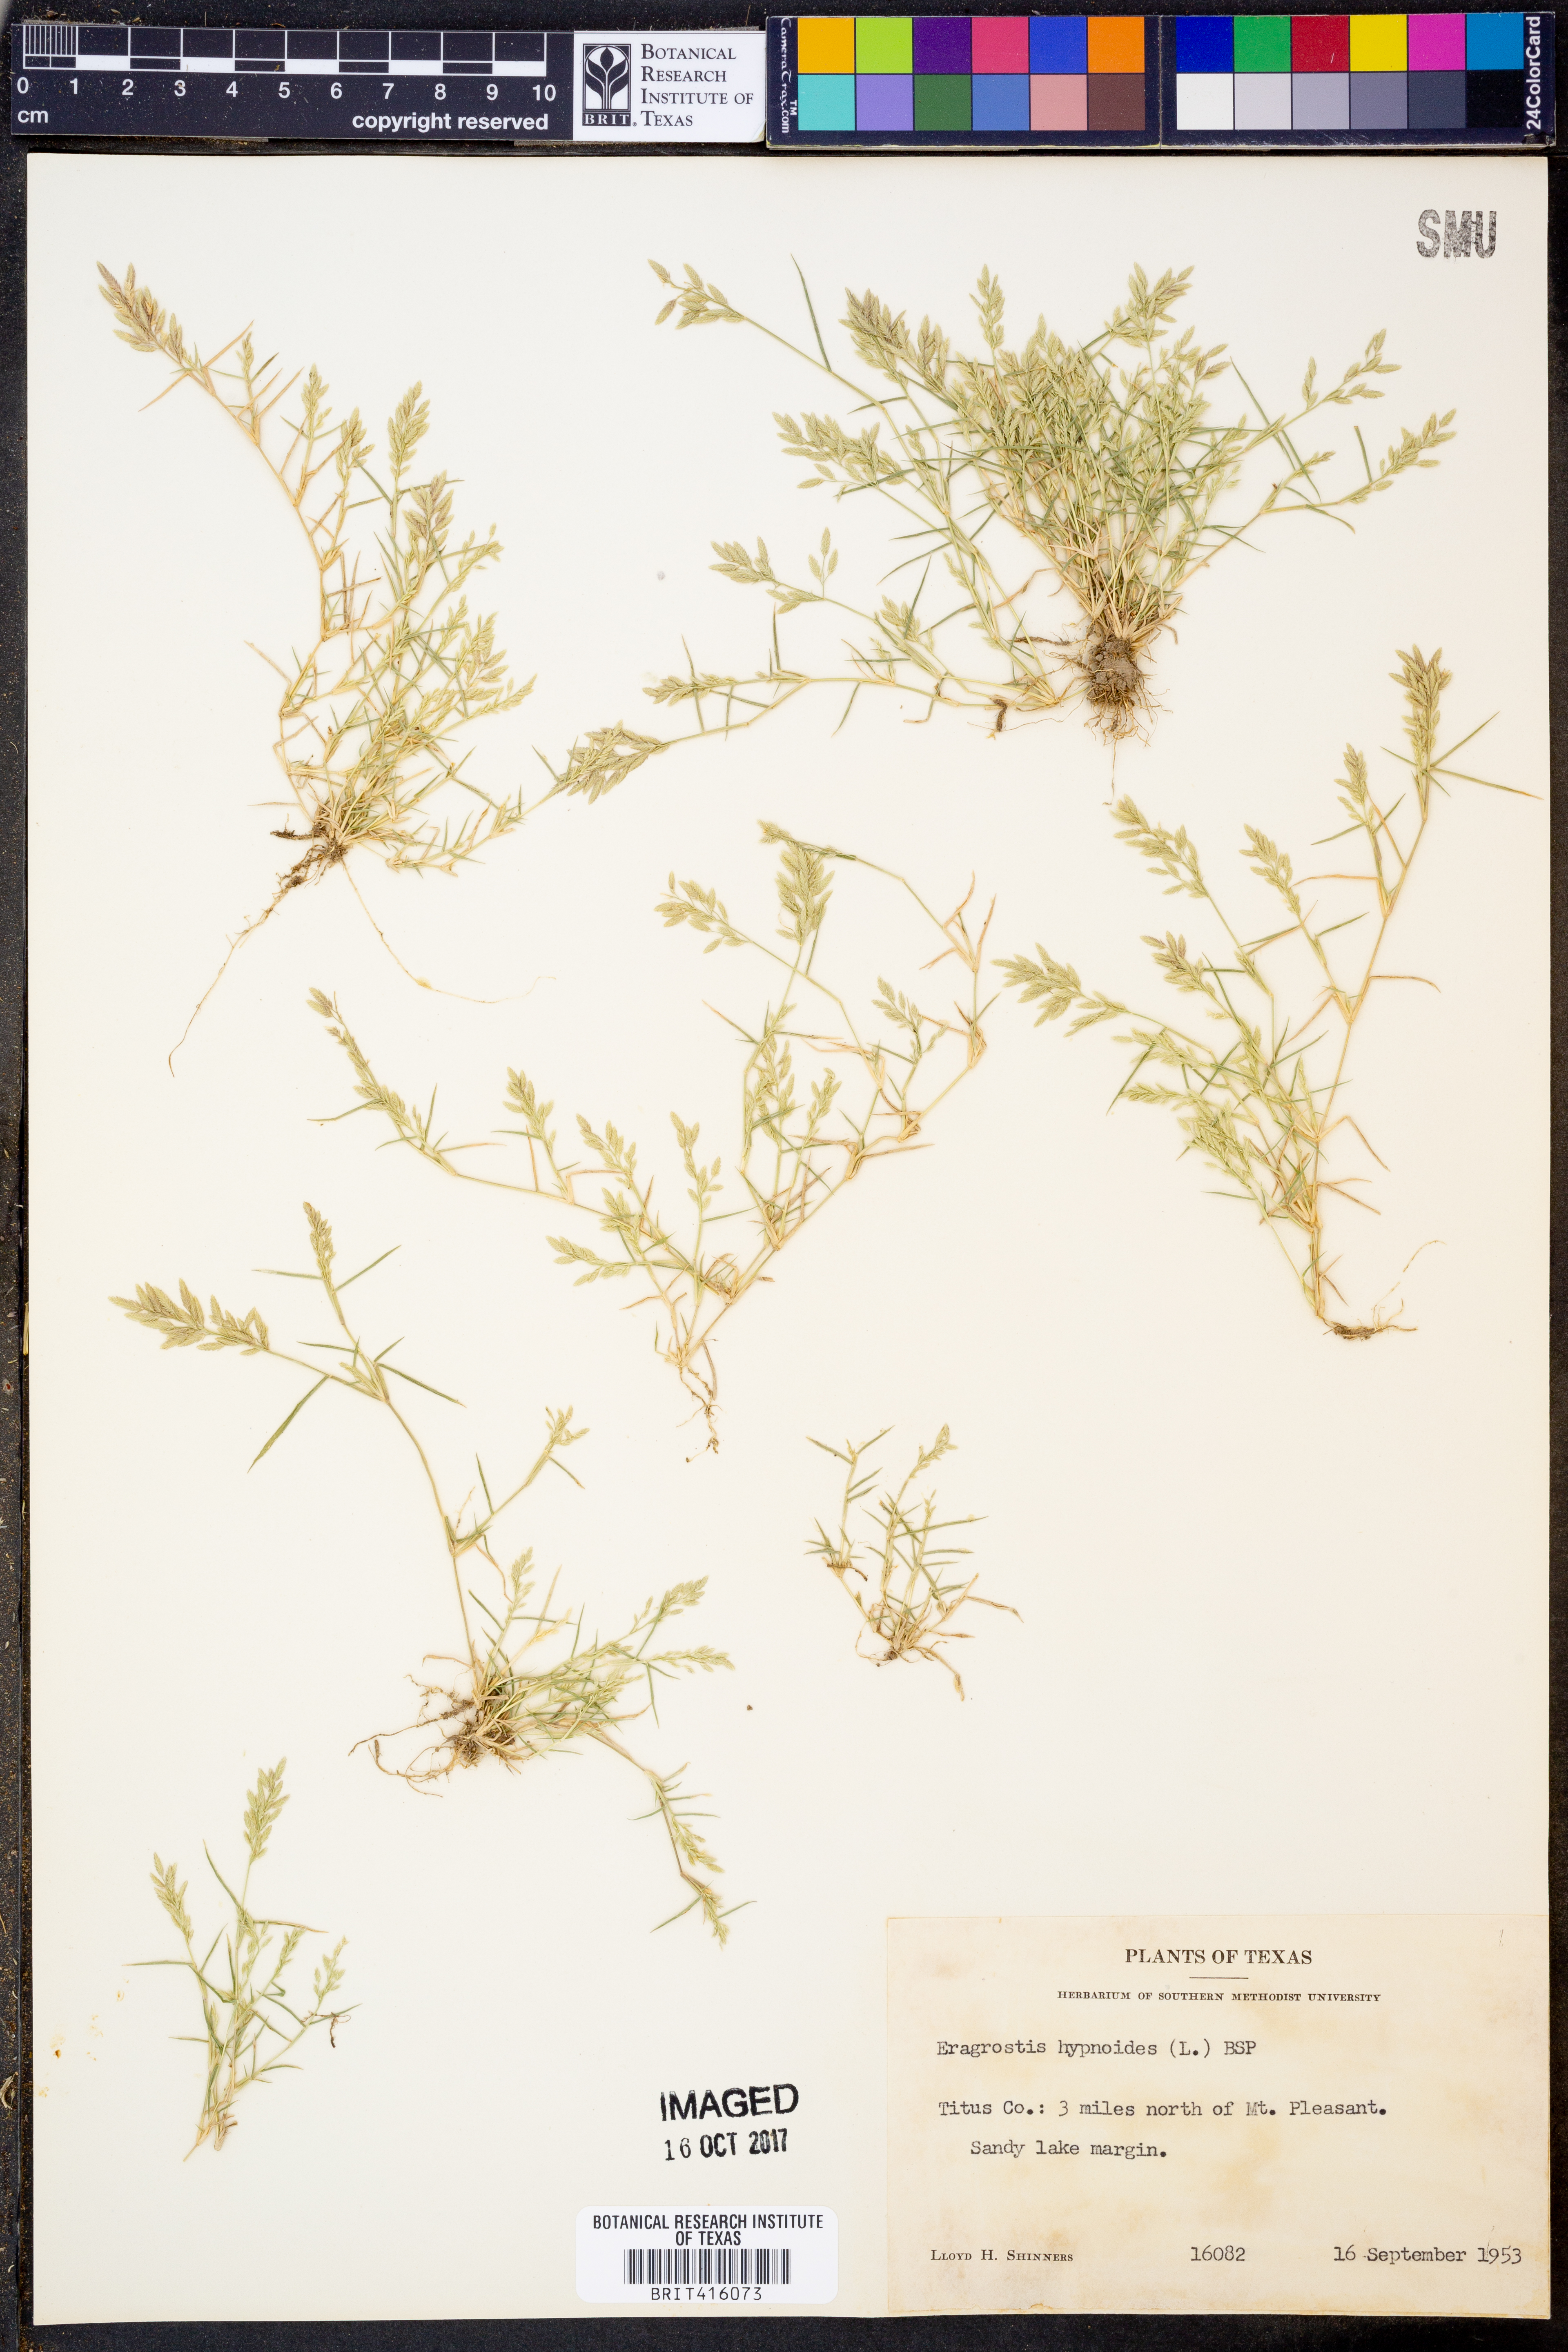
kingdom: Plantae
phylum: Tracheophyta
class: Liliopsida
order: Poales
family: Poaceae
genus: Eragrostis
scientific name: Eragrostis hypnoides
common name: Creeping love grass
